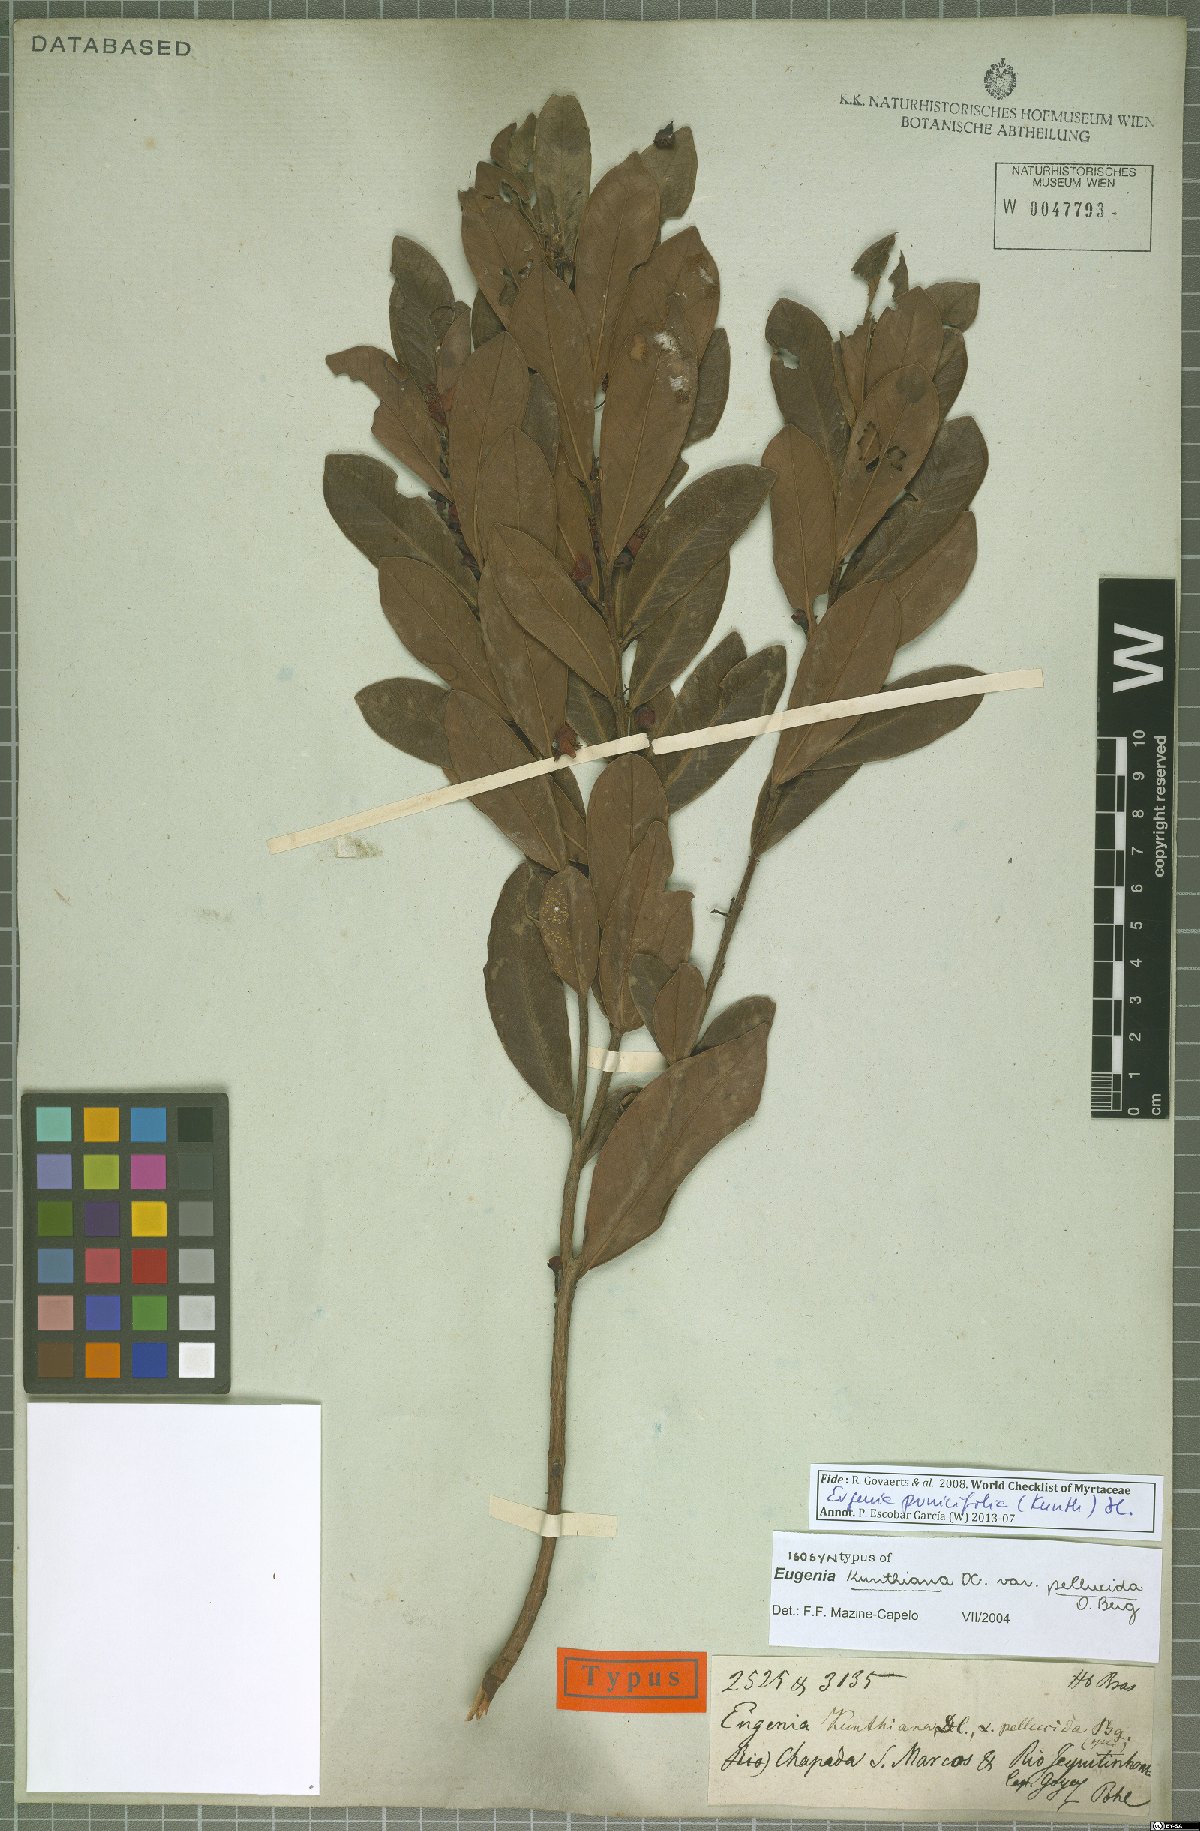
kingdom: Plantae
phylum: Tracheophyta
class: Magnoliopsida
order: Myrtales
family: Myrtaceae
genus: Eugenia
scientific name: Eugenia punicifolia
